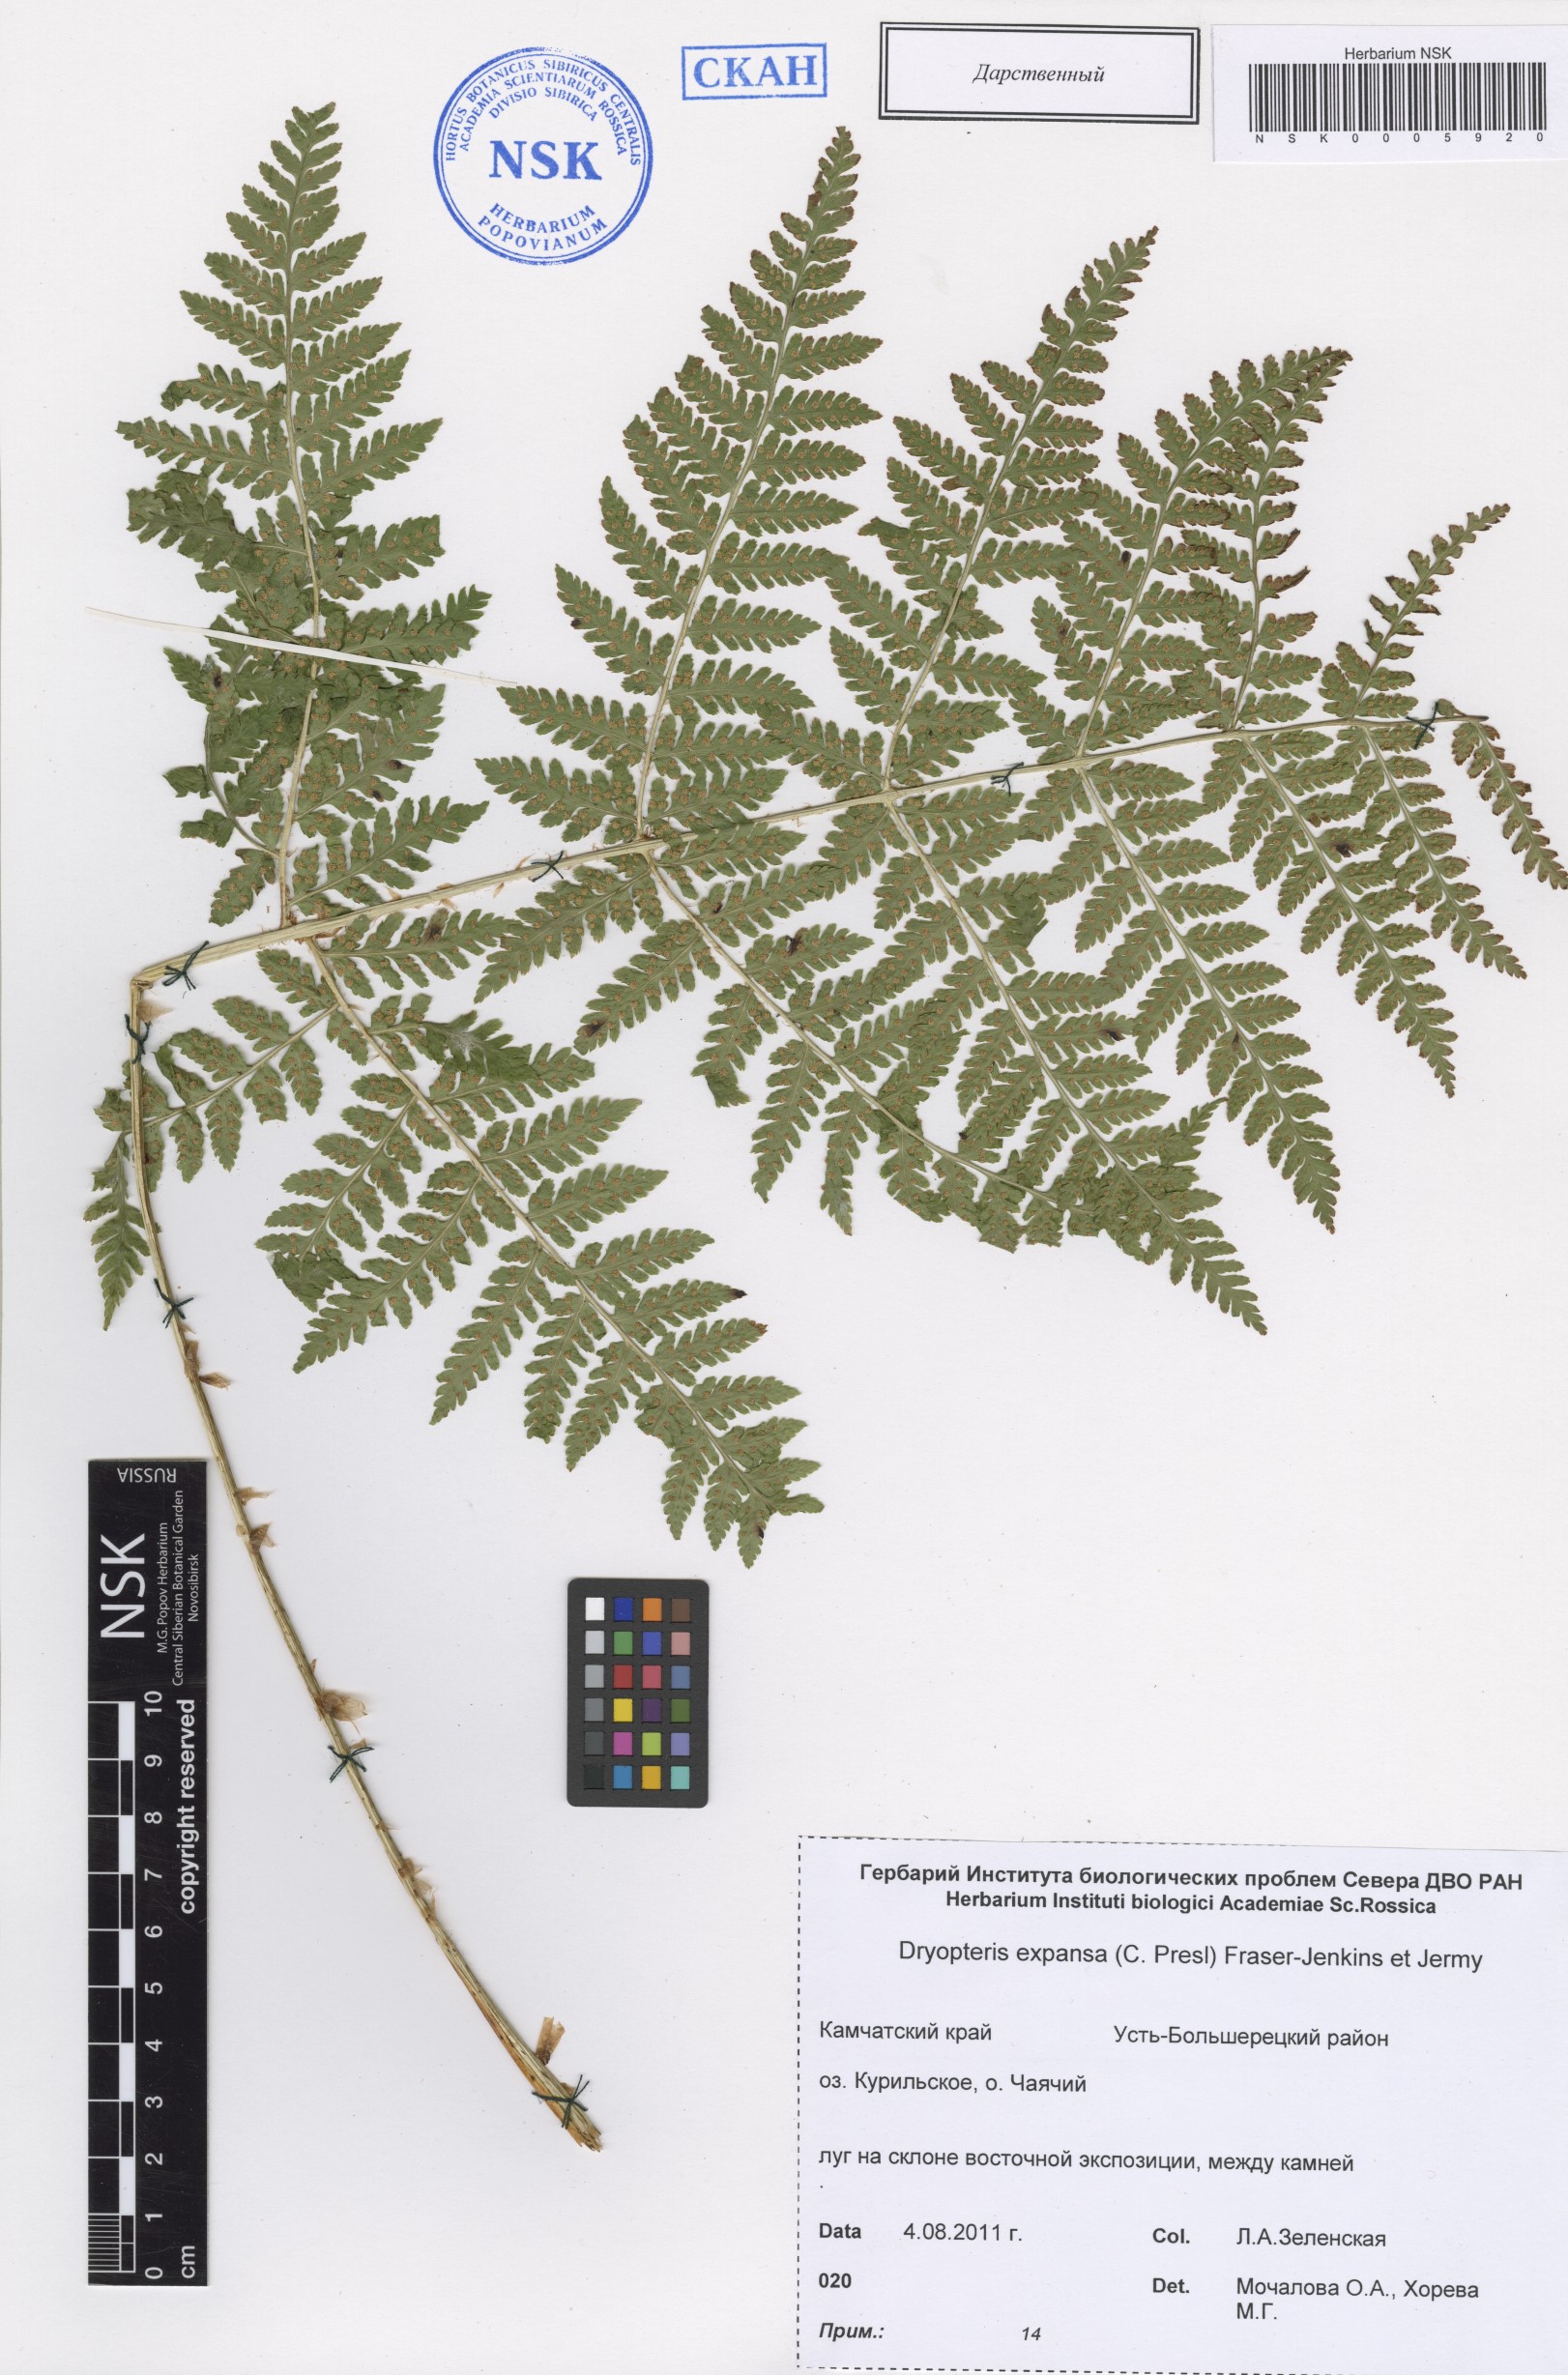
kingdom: Plantae
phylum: Tracheophyta
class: Polypodiopsida
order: Polypodiales
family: Dryopteridaceae
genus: Dryopteris
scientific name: Dryopteris expansa
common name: Northern buckler fern
